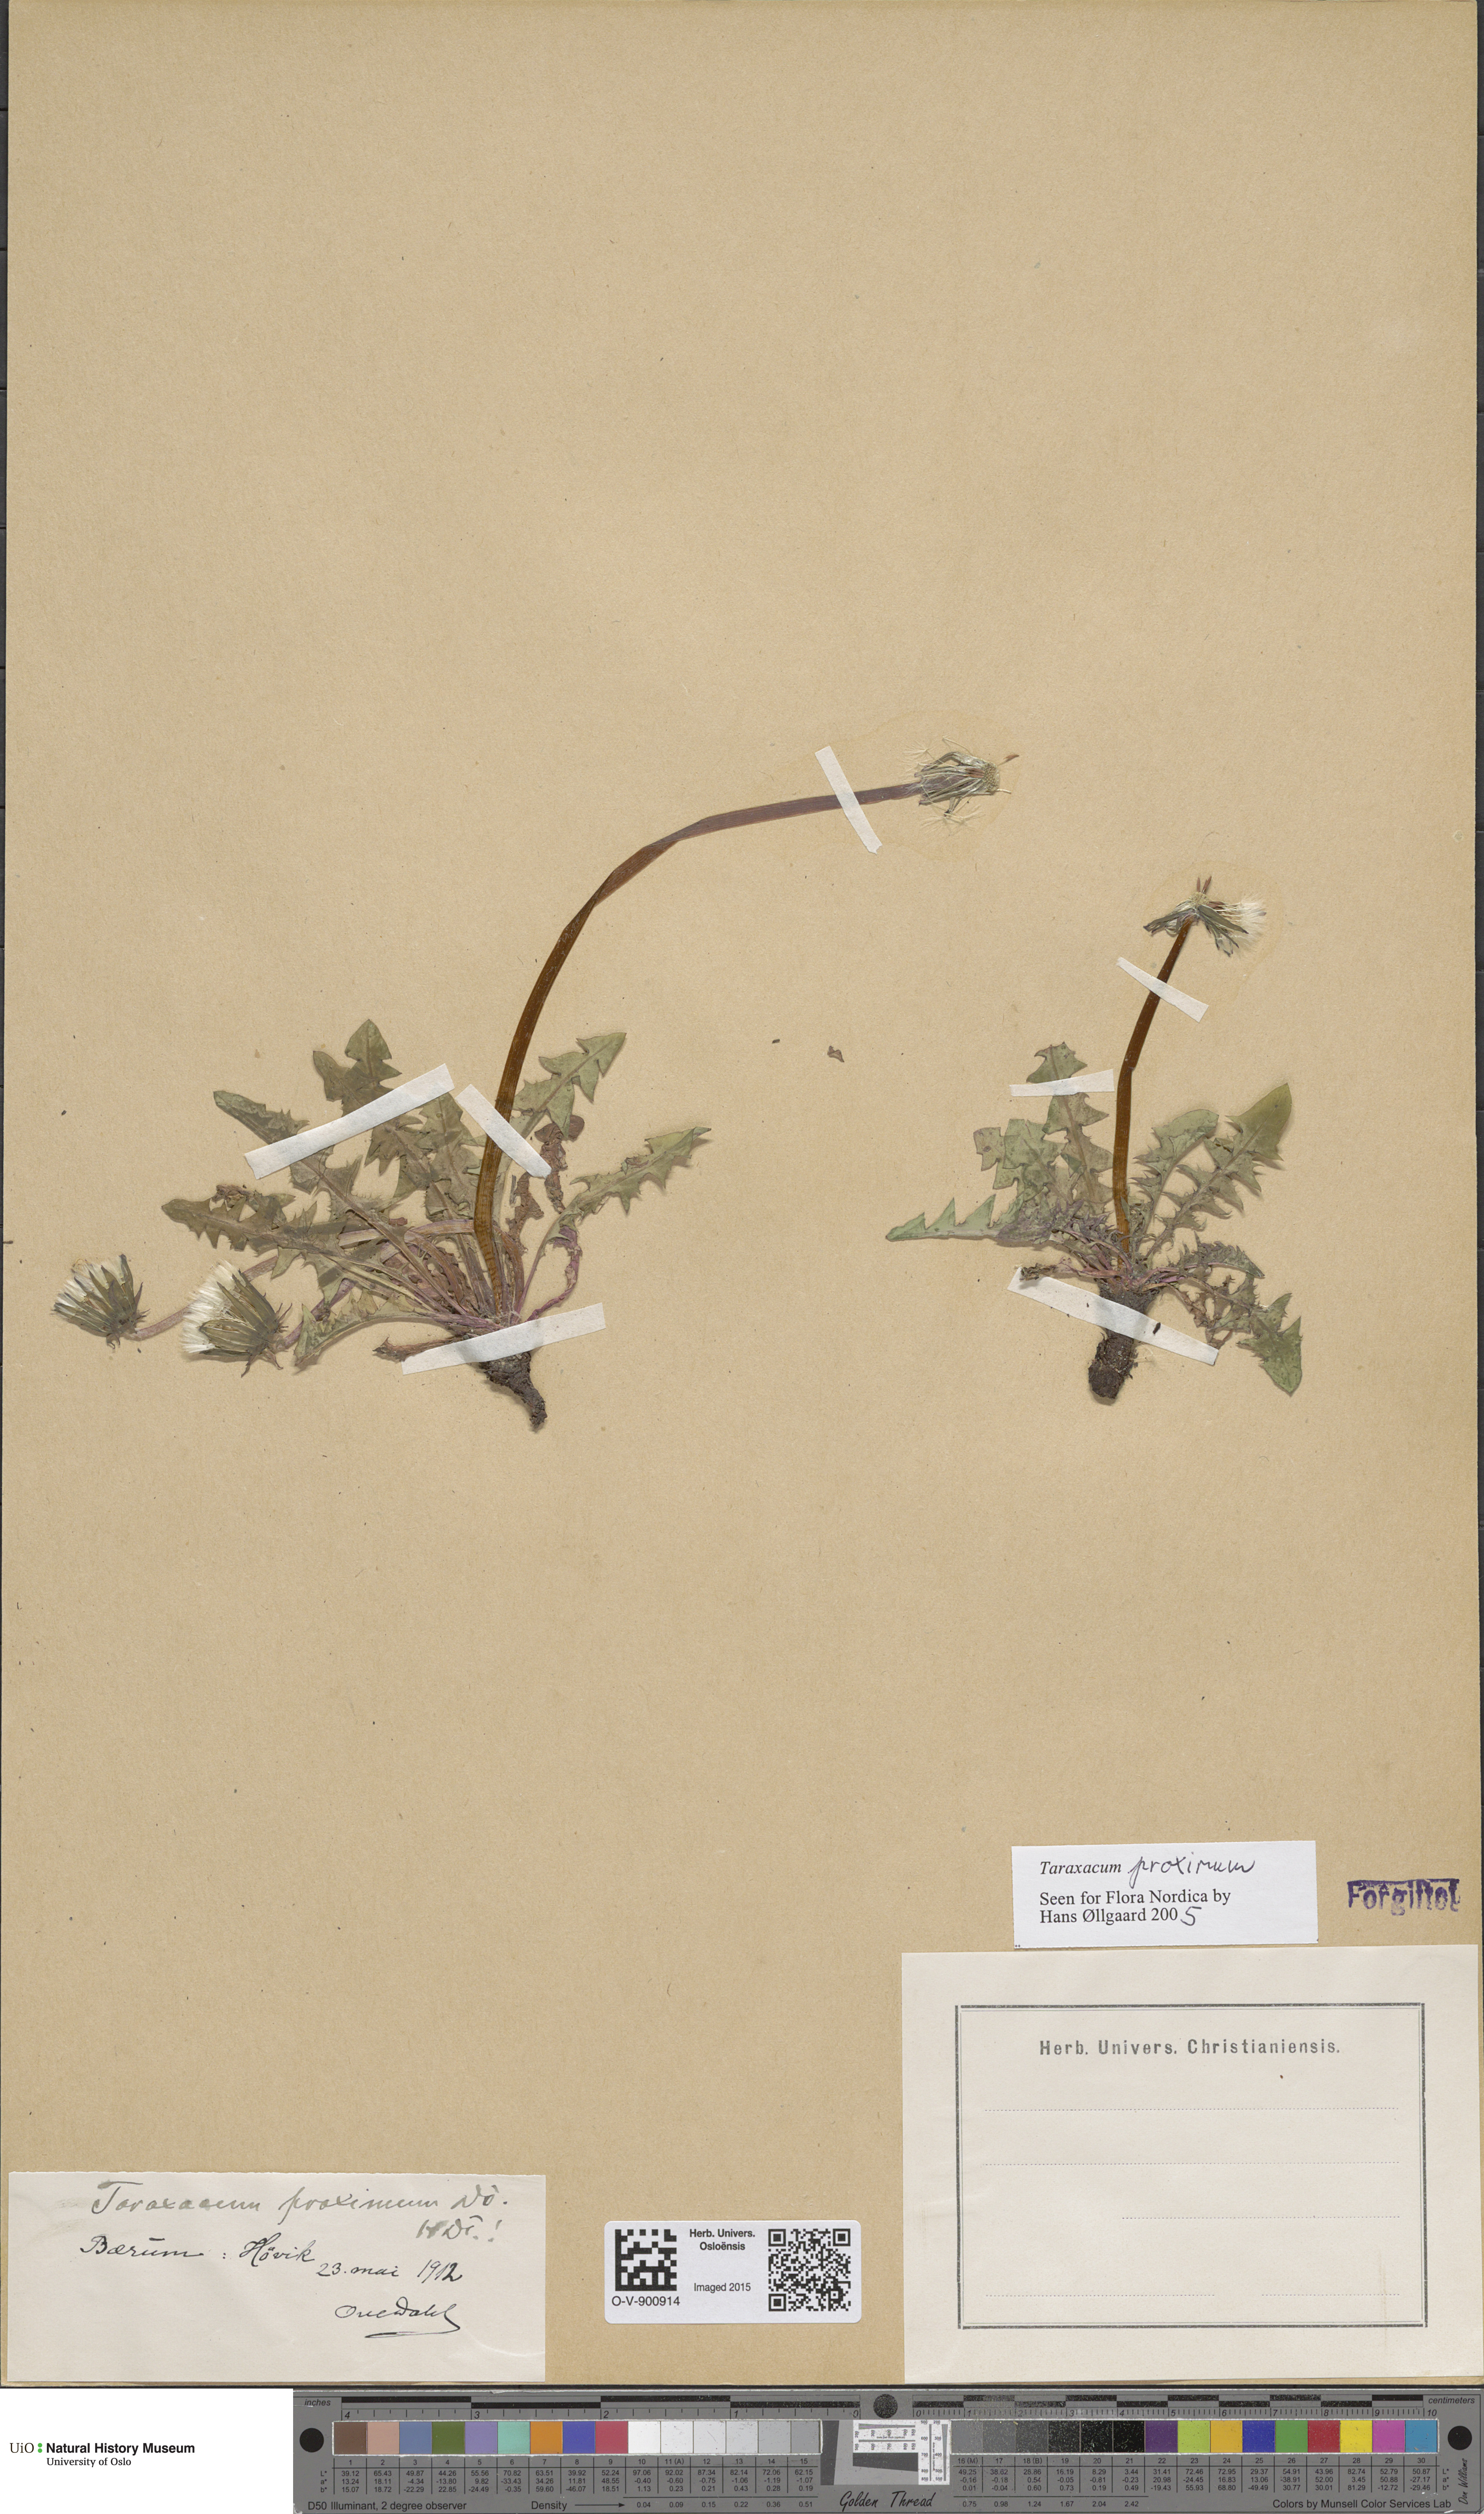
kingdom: Plantae
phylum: Tracheophyta
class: Magnoliopsida
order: Asterales
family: Asteraceae
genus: Taraxacum
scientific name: Taraxacum proximum
